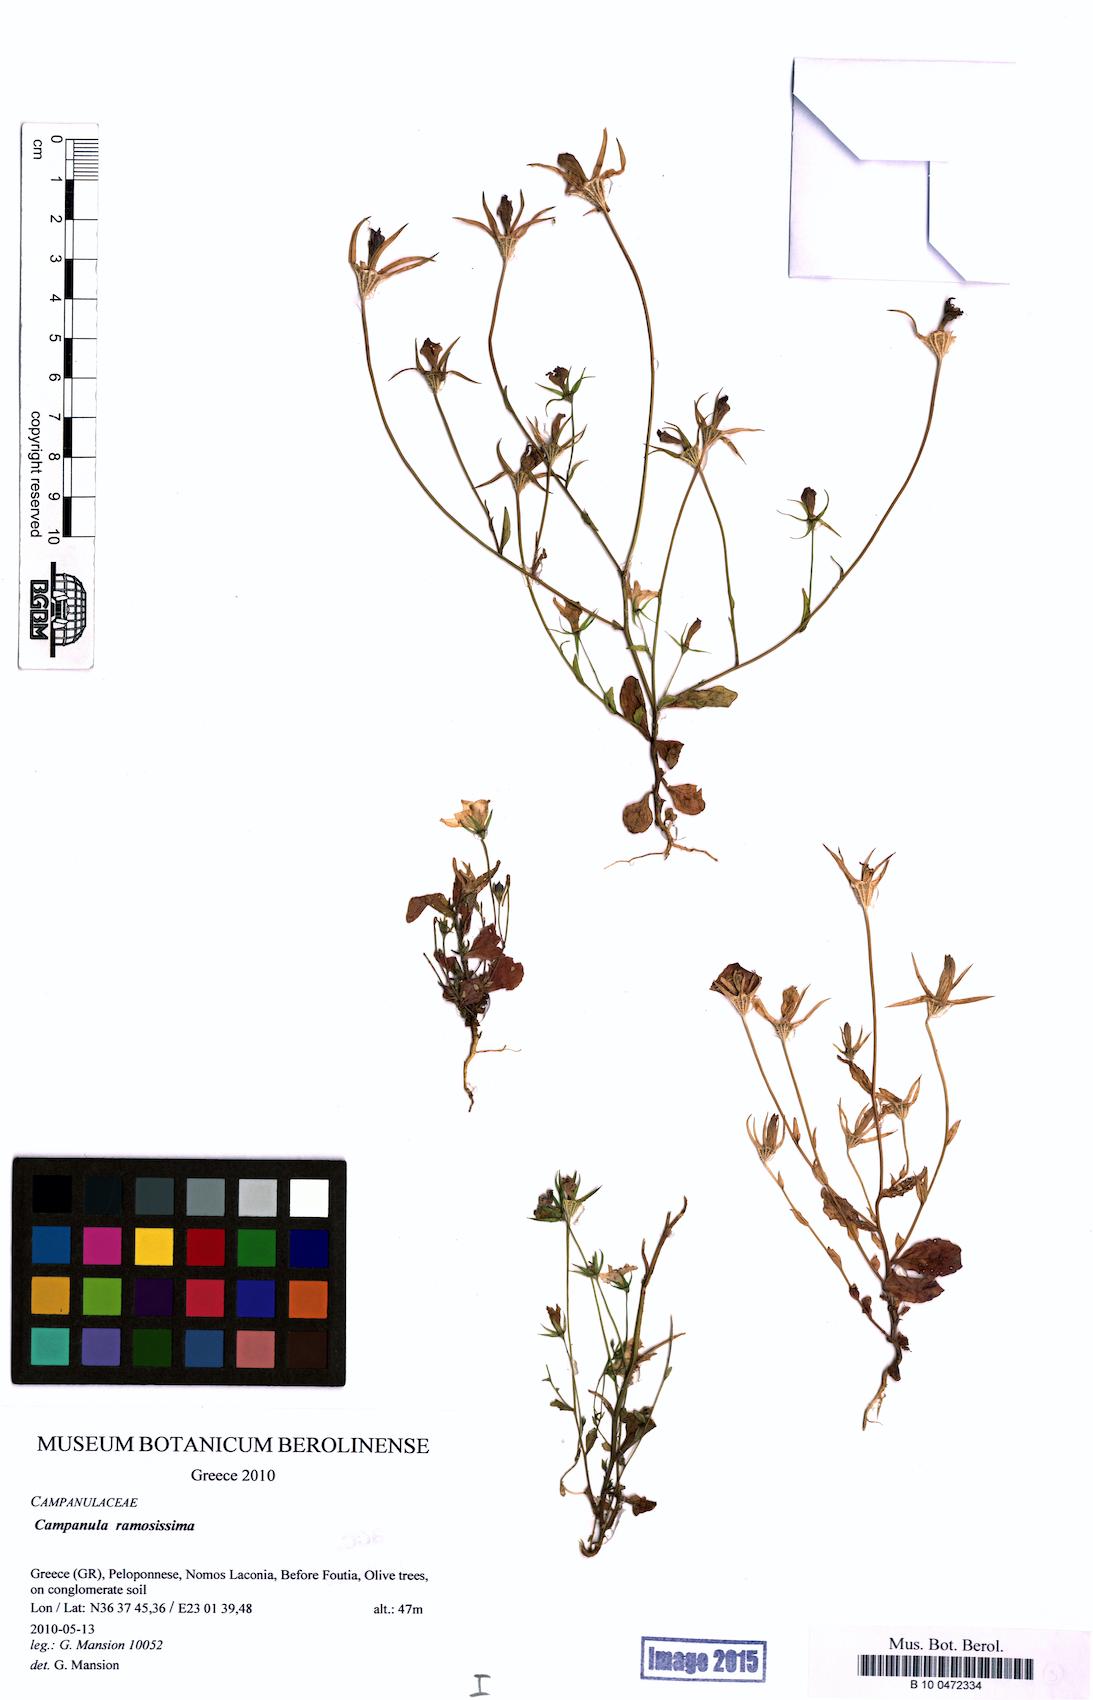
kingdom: Plantae
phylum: Tracheophyta
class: Magnoliopsida
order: Asterales
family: Campanulaceae
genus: Campanula
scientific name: Campanula ramosissima
